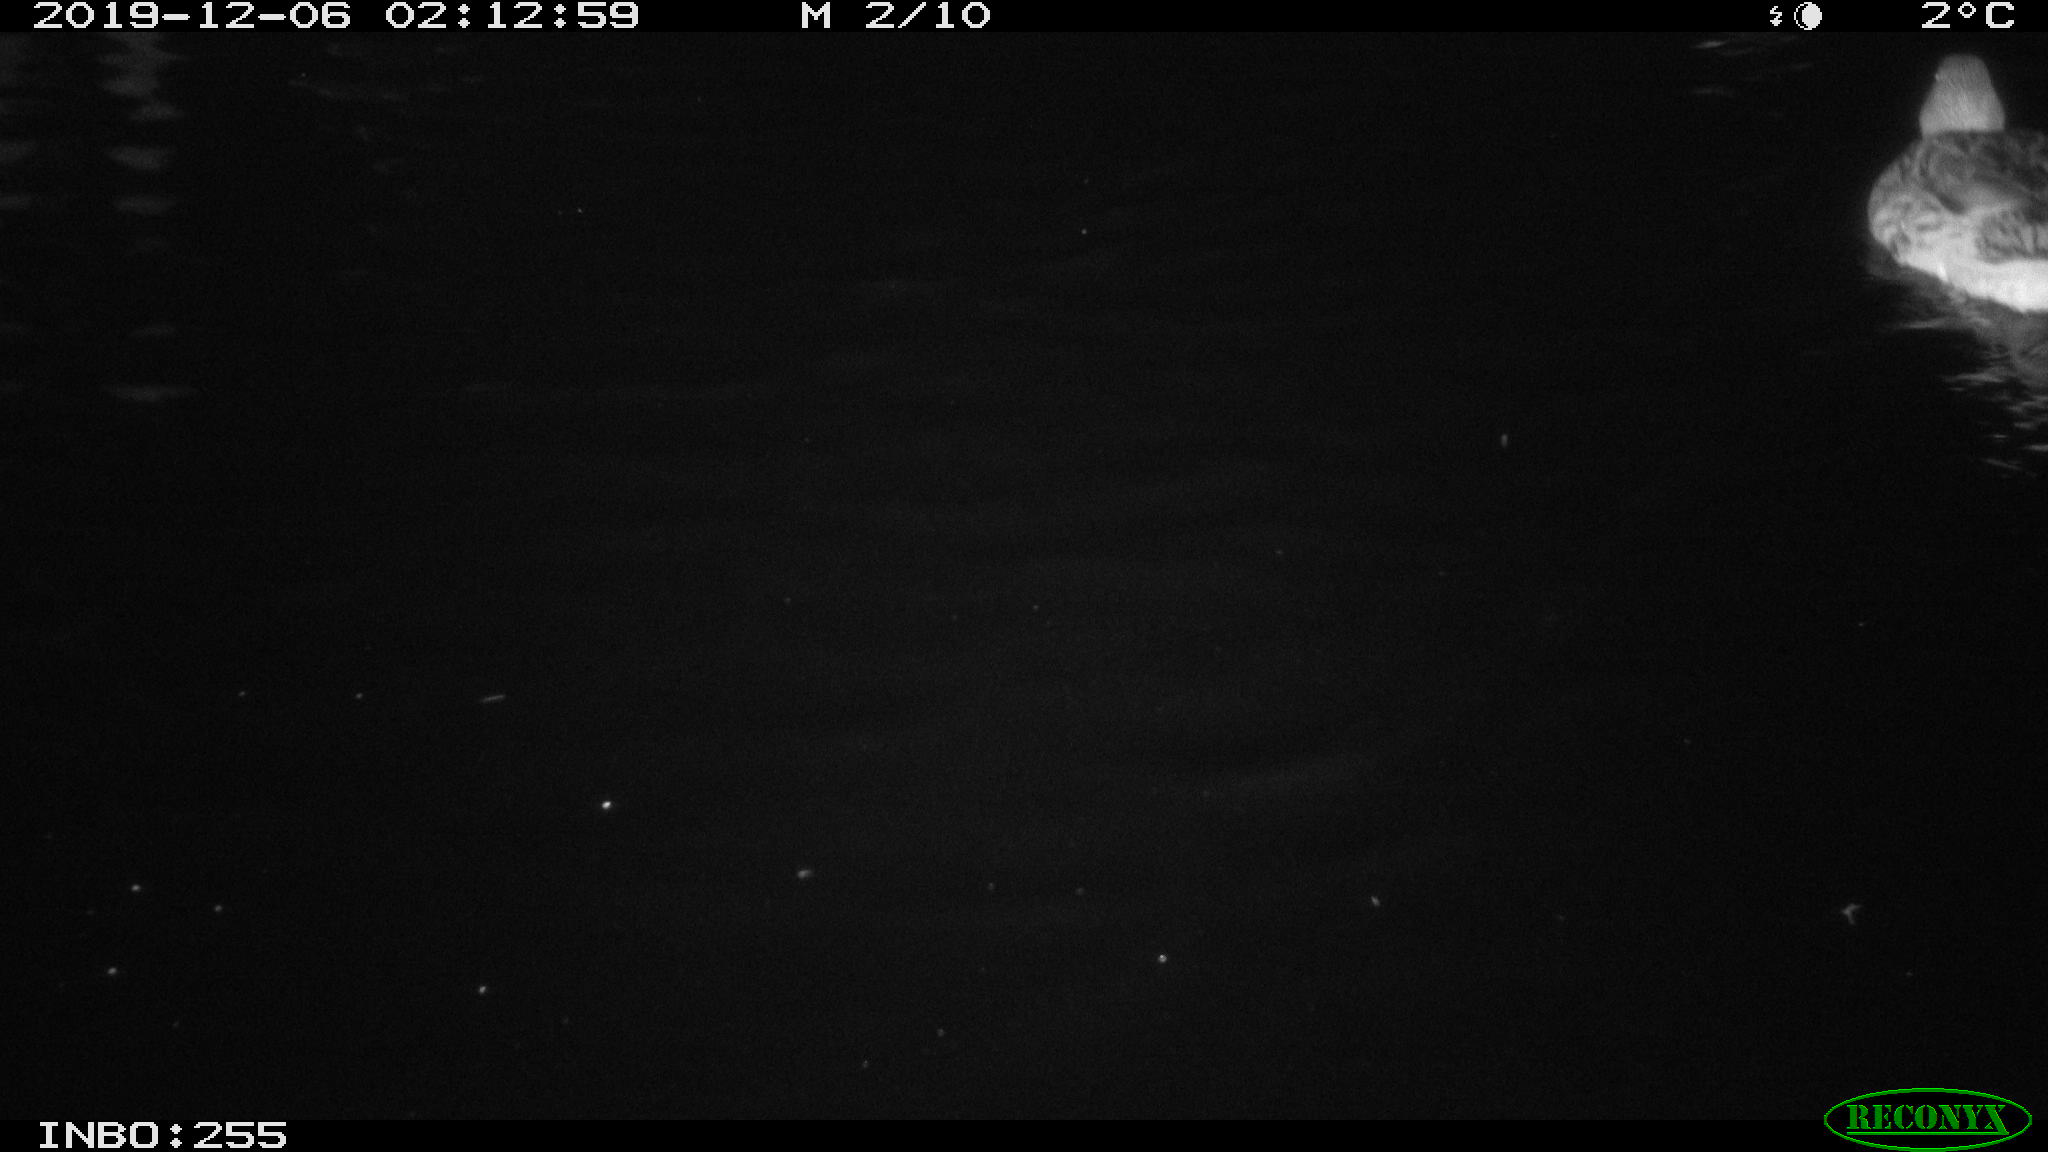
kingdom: Animalia
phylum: Chordata
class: Aves
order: Anseriformes
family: Anatidae
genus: Anas
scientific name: Anas platyrhynchos
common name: Mallard
